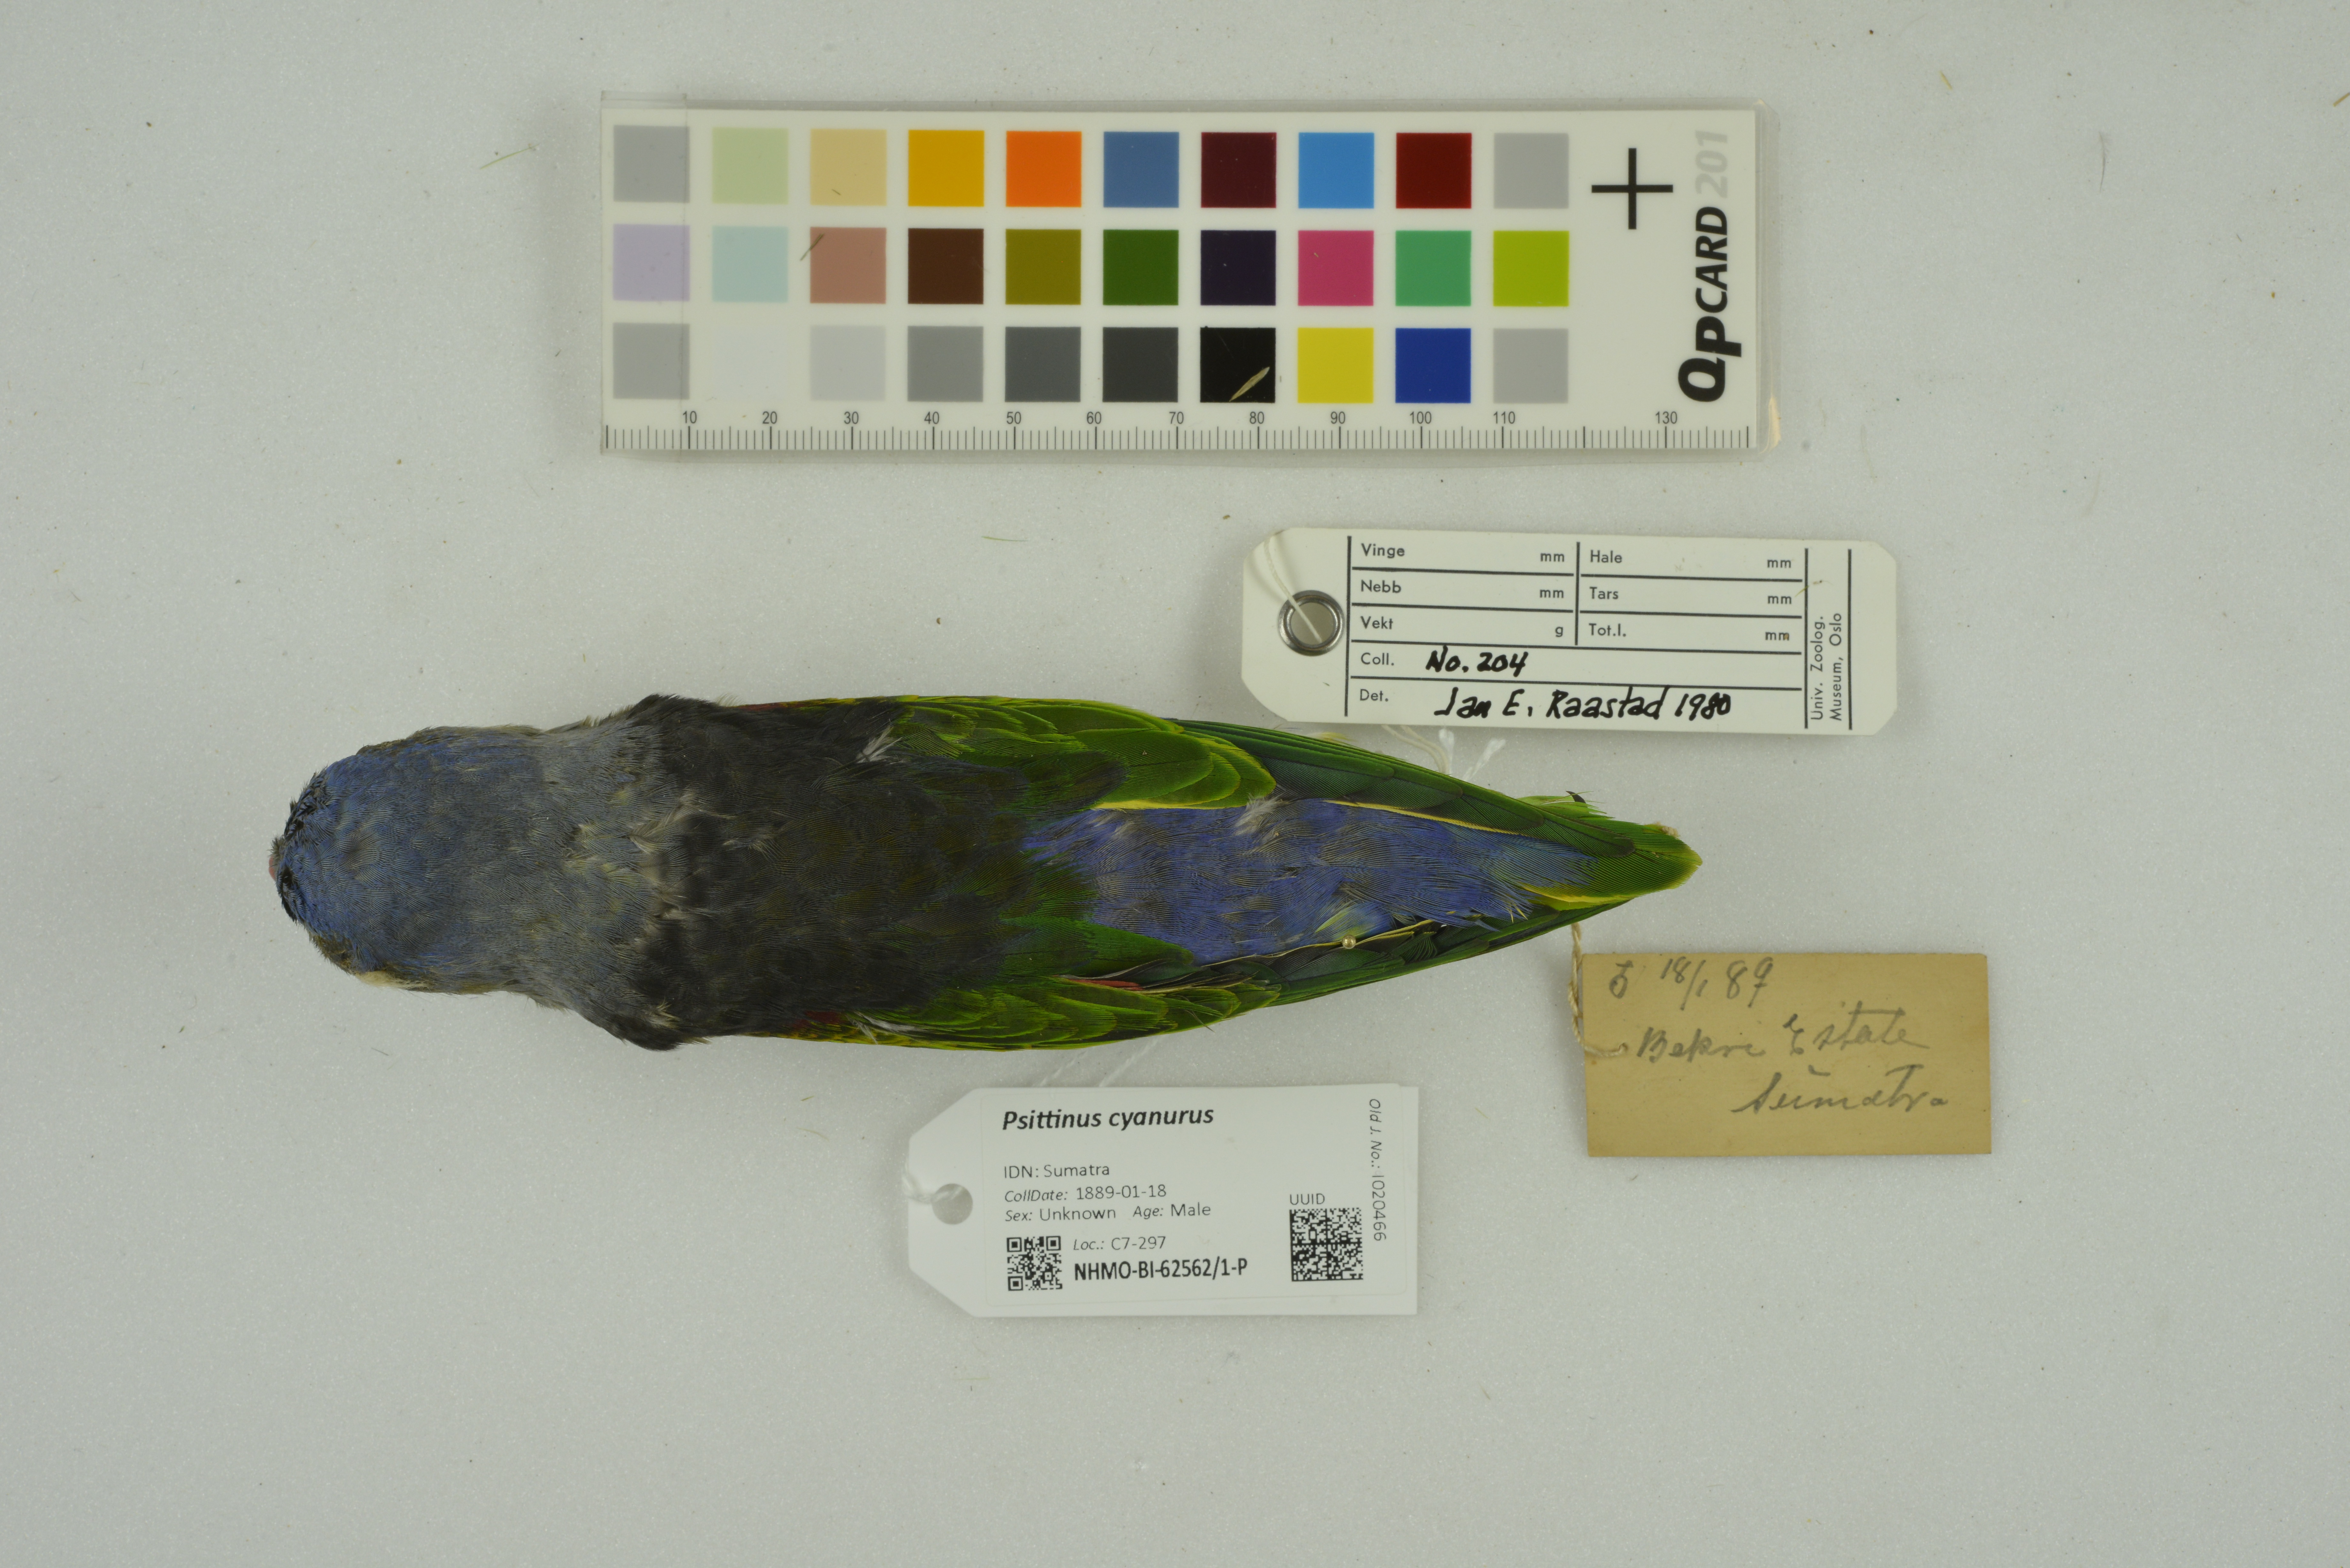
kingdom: Animalia
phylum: Chordata
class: Aves
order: Psittaciformes
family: Psittacidae
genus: Psittinus
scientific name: Psittinus cyanurus
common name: Blue-rumped parrot
